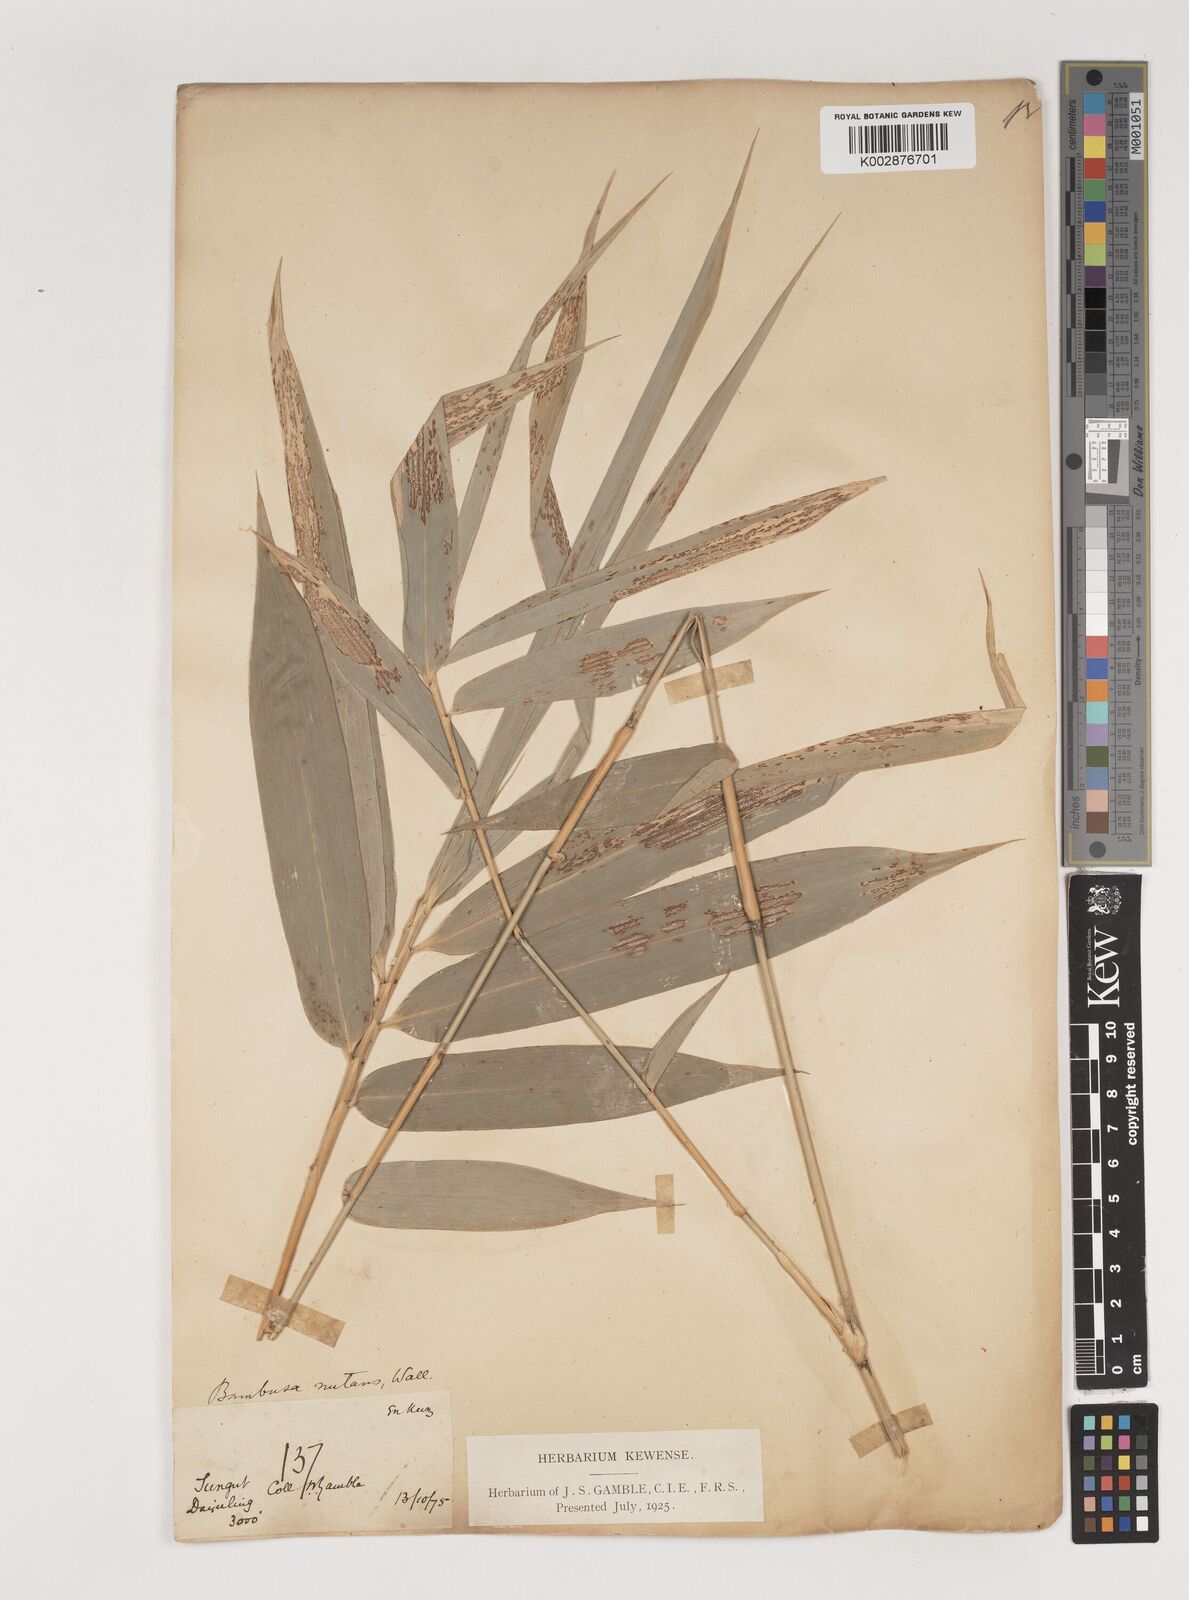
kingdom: Plantae
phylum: Tracheophyta
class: Liliopsida
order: Poales
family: Poaceae
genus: Bambusa
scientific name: Bambusa nutans
